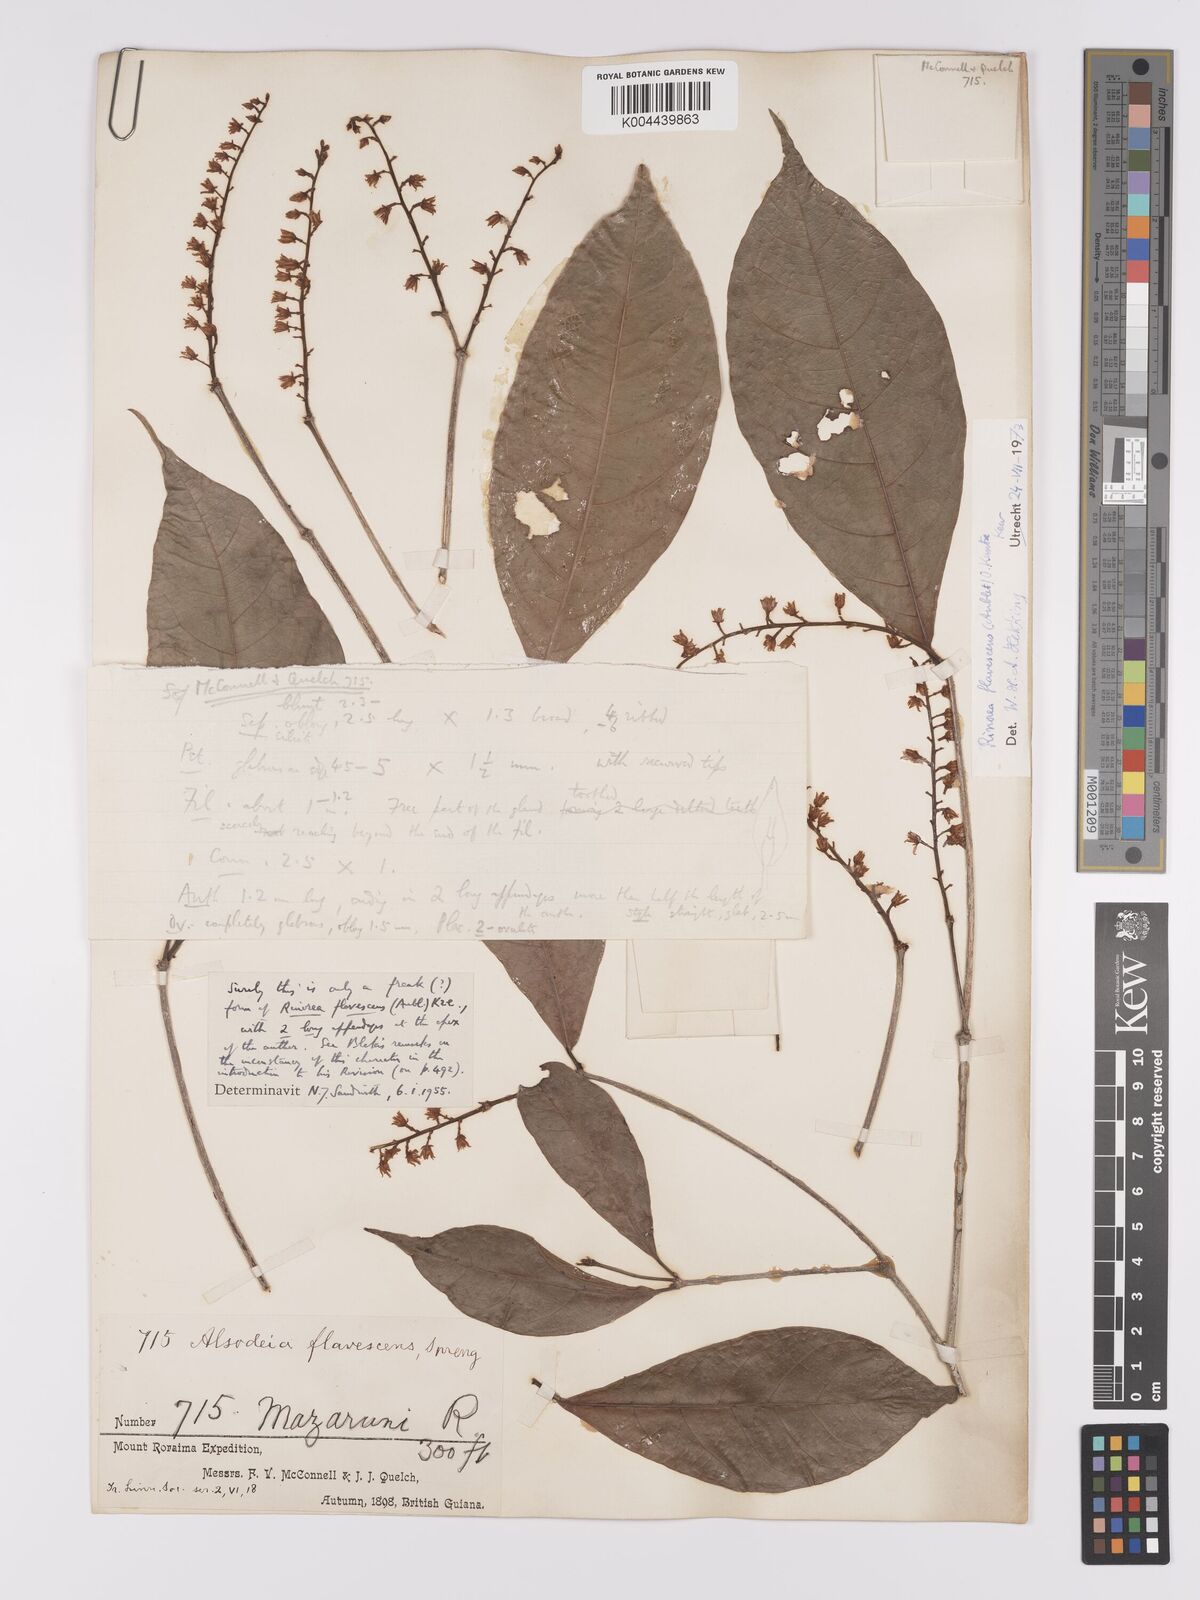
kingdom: Plantae
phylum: Tracheophyta
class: Magnoliopsida
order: Malpighiales
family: Violaceae
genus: Rinorea
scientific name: Rinorea flavescens
